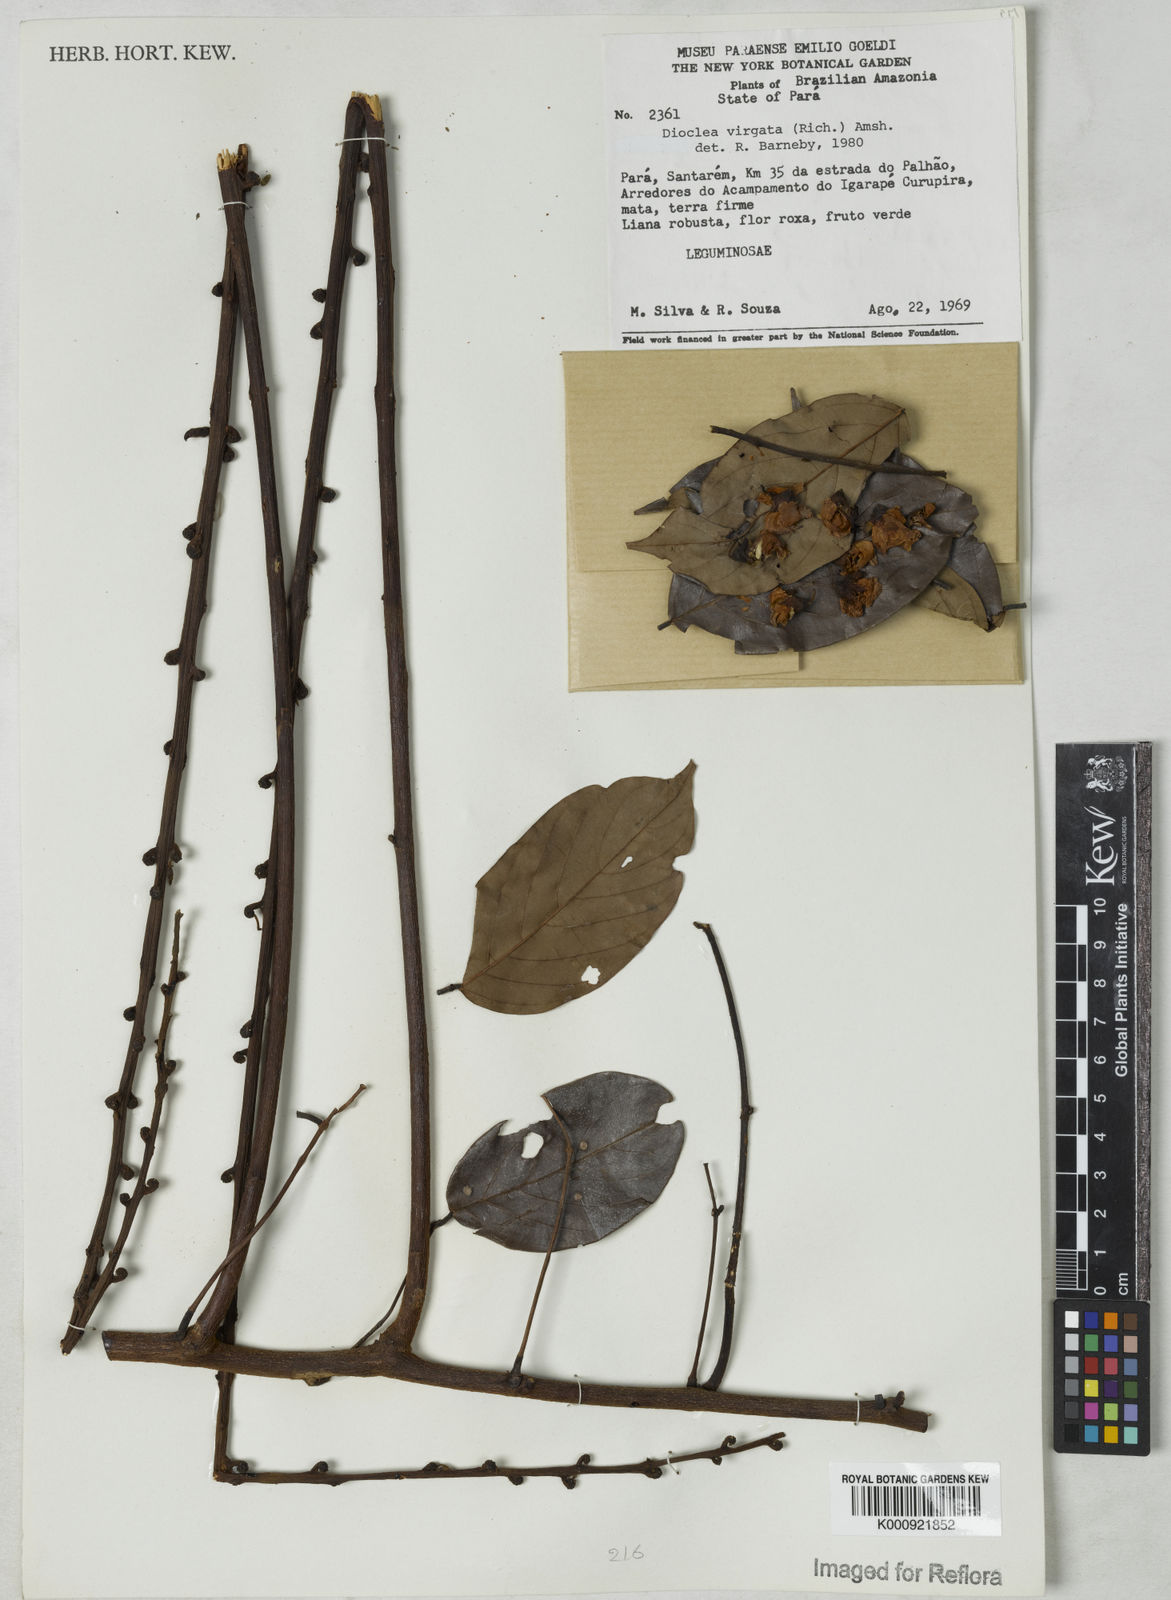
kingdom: Plantae
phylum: Tracheophyta
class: Magnoliopsida
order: Fabales
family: Fabaceae
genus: Dioclea
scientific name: Dioclea virgata
